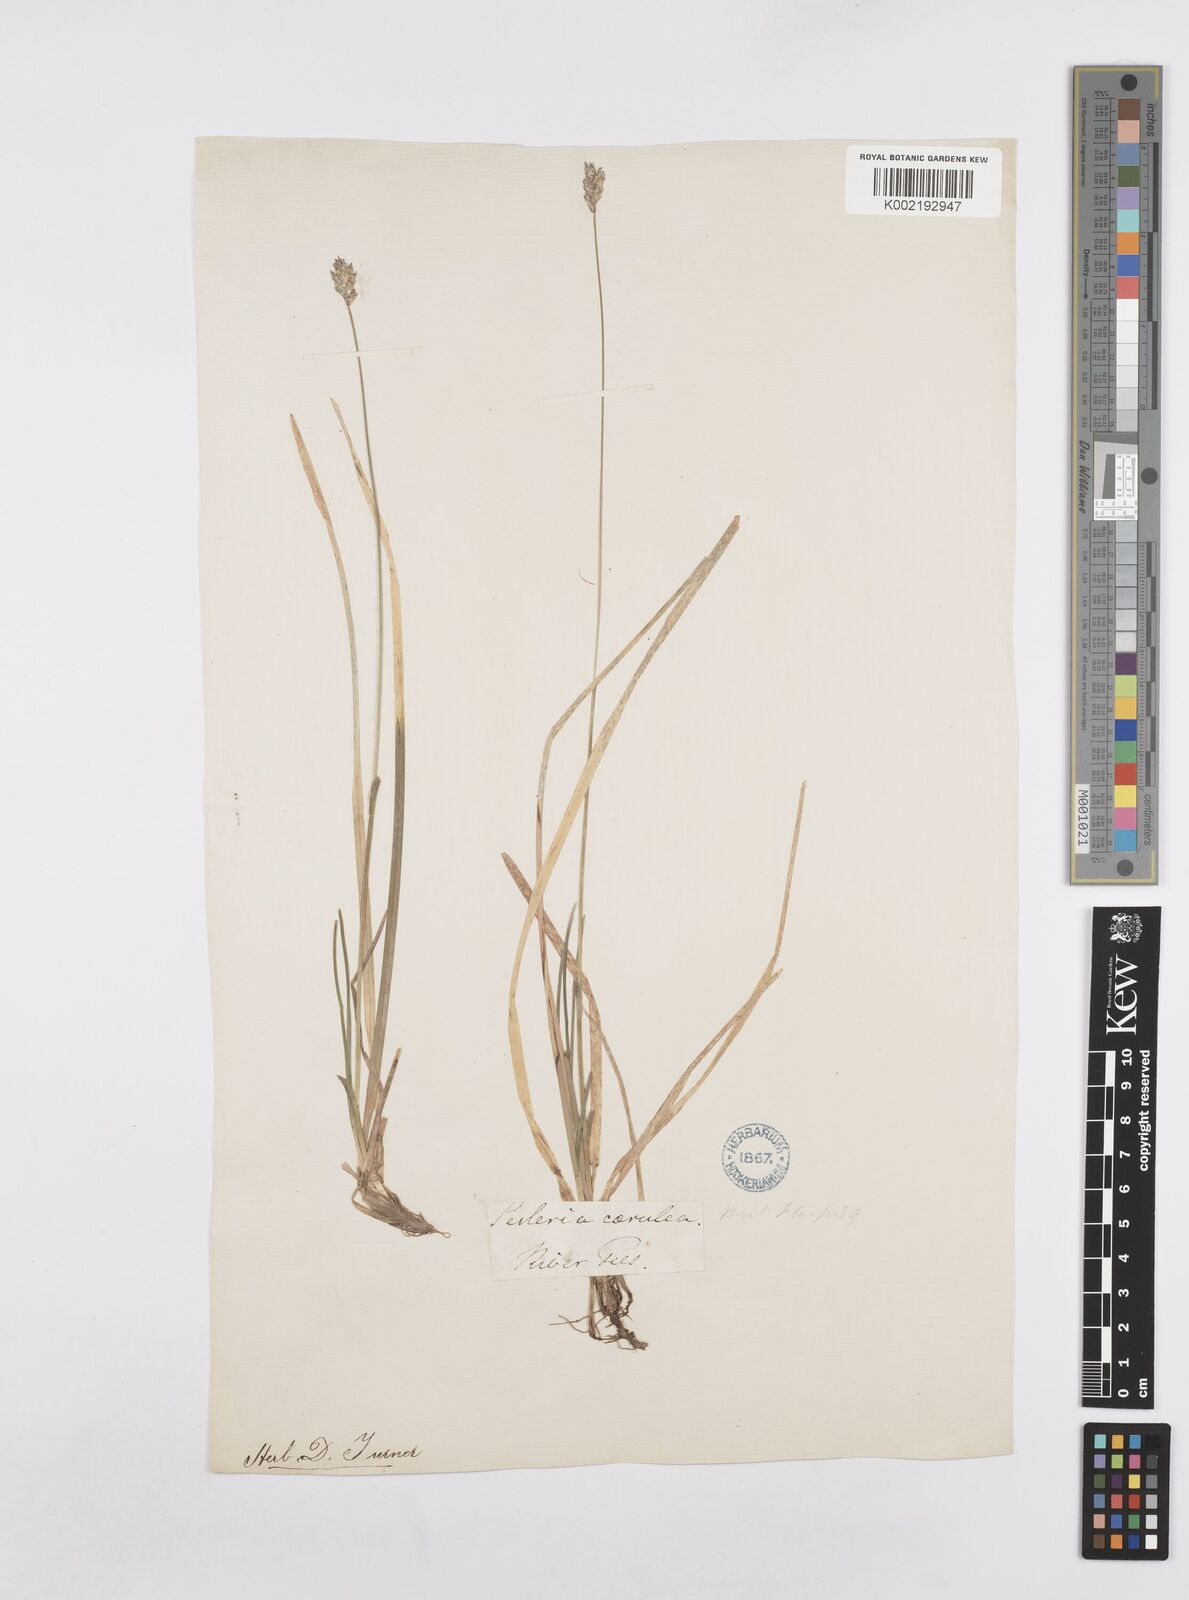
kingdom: Plantae
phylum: Tracheophyta
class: Liliopsida
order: Poales
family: Poaceae
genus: Sesleria
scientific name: Sesleria caerulea
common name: Blue moor-grass
